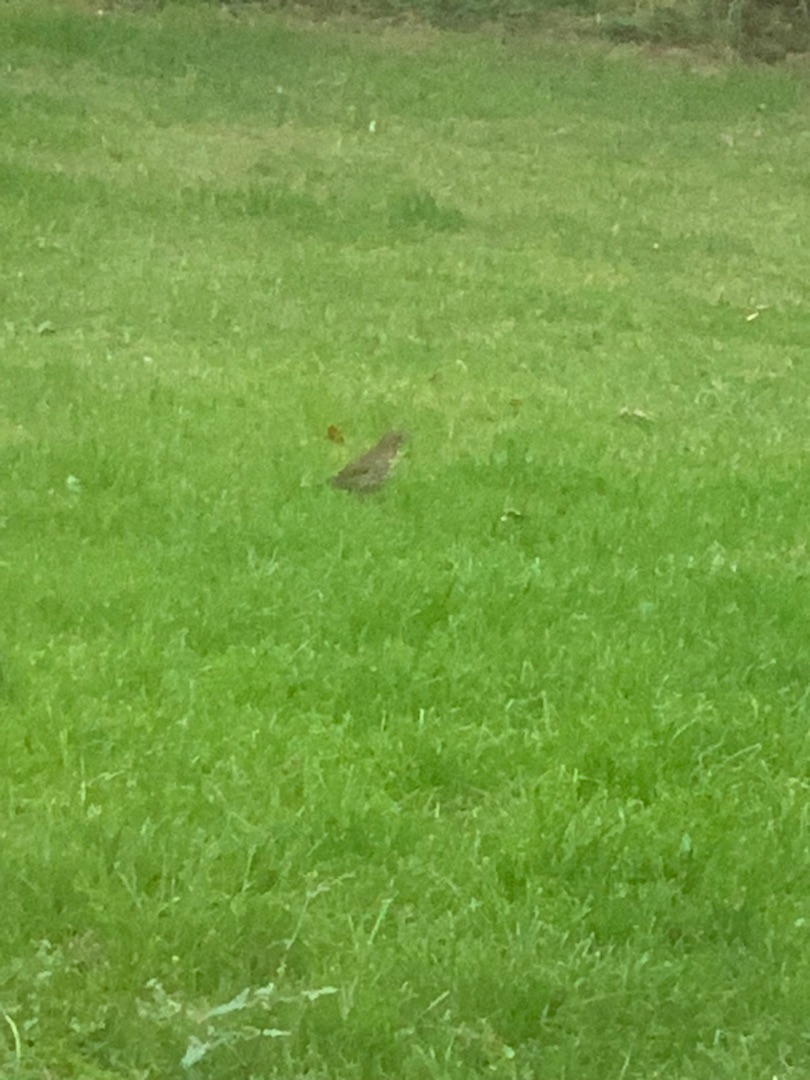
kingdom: Animalia
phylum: Chordata
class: Aves
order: Passeriformes
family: Turdidae
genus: Turdus
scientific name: Turdus philomelos
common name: Sangdrossel
